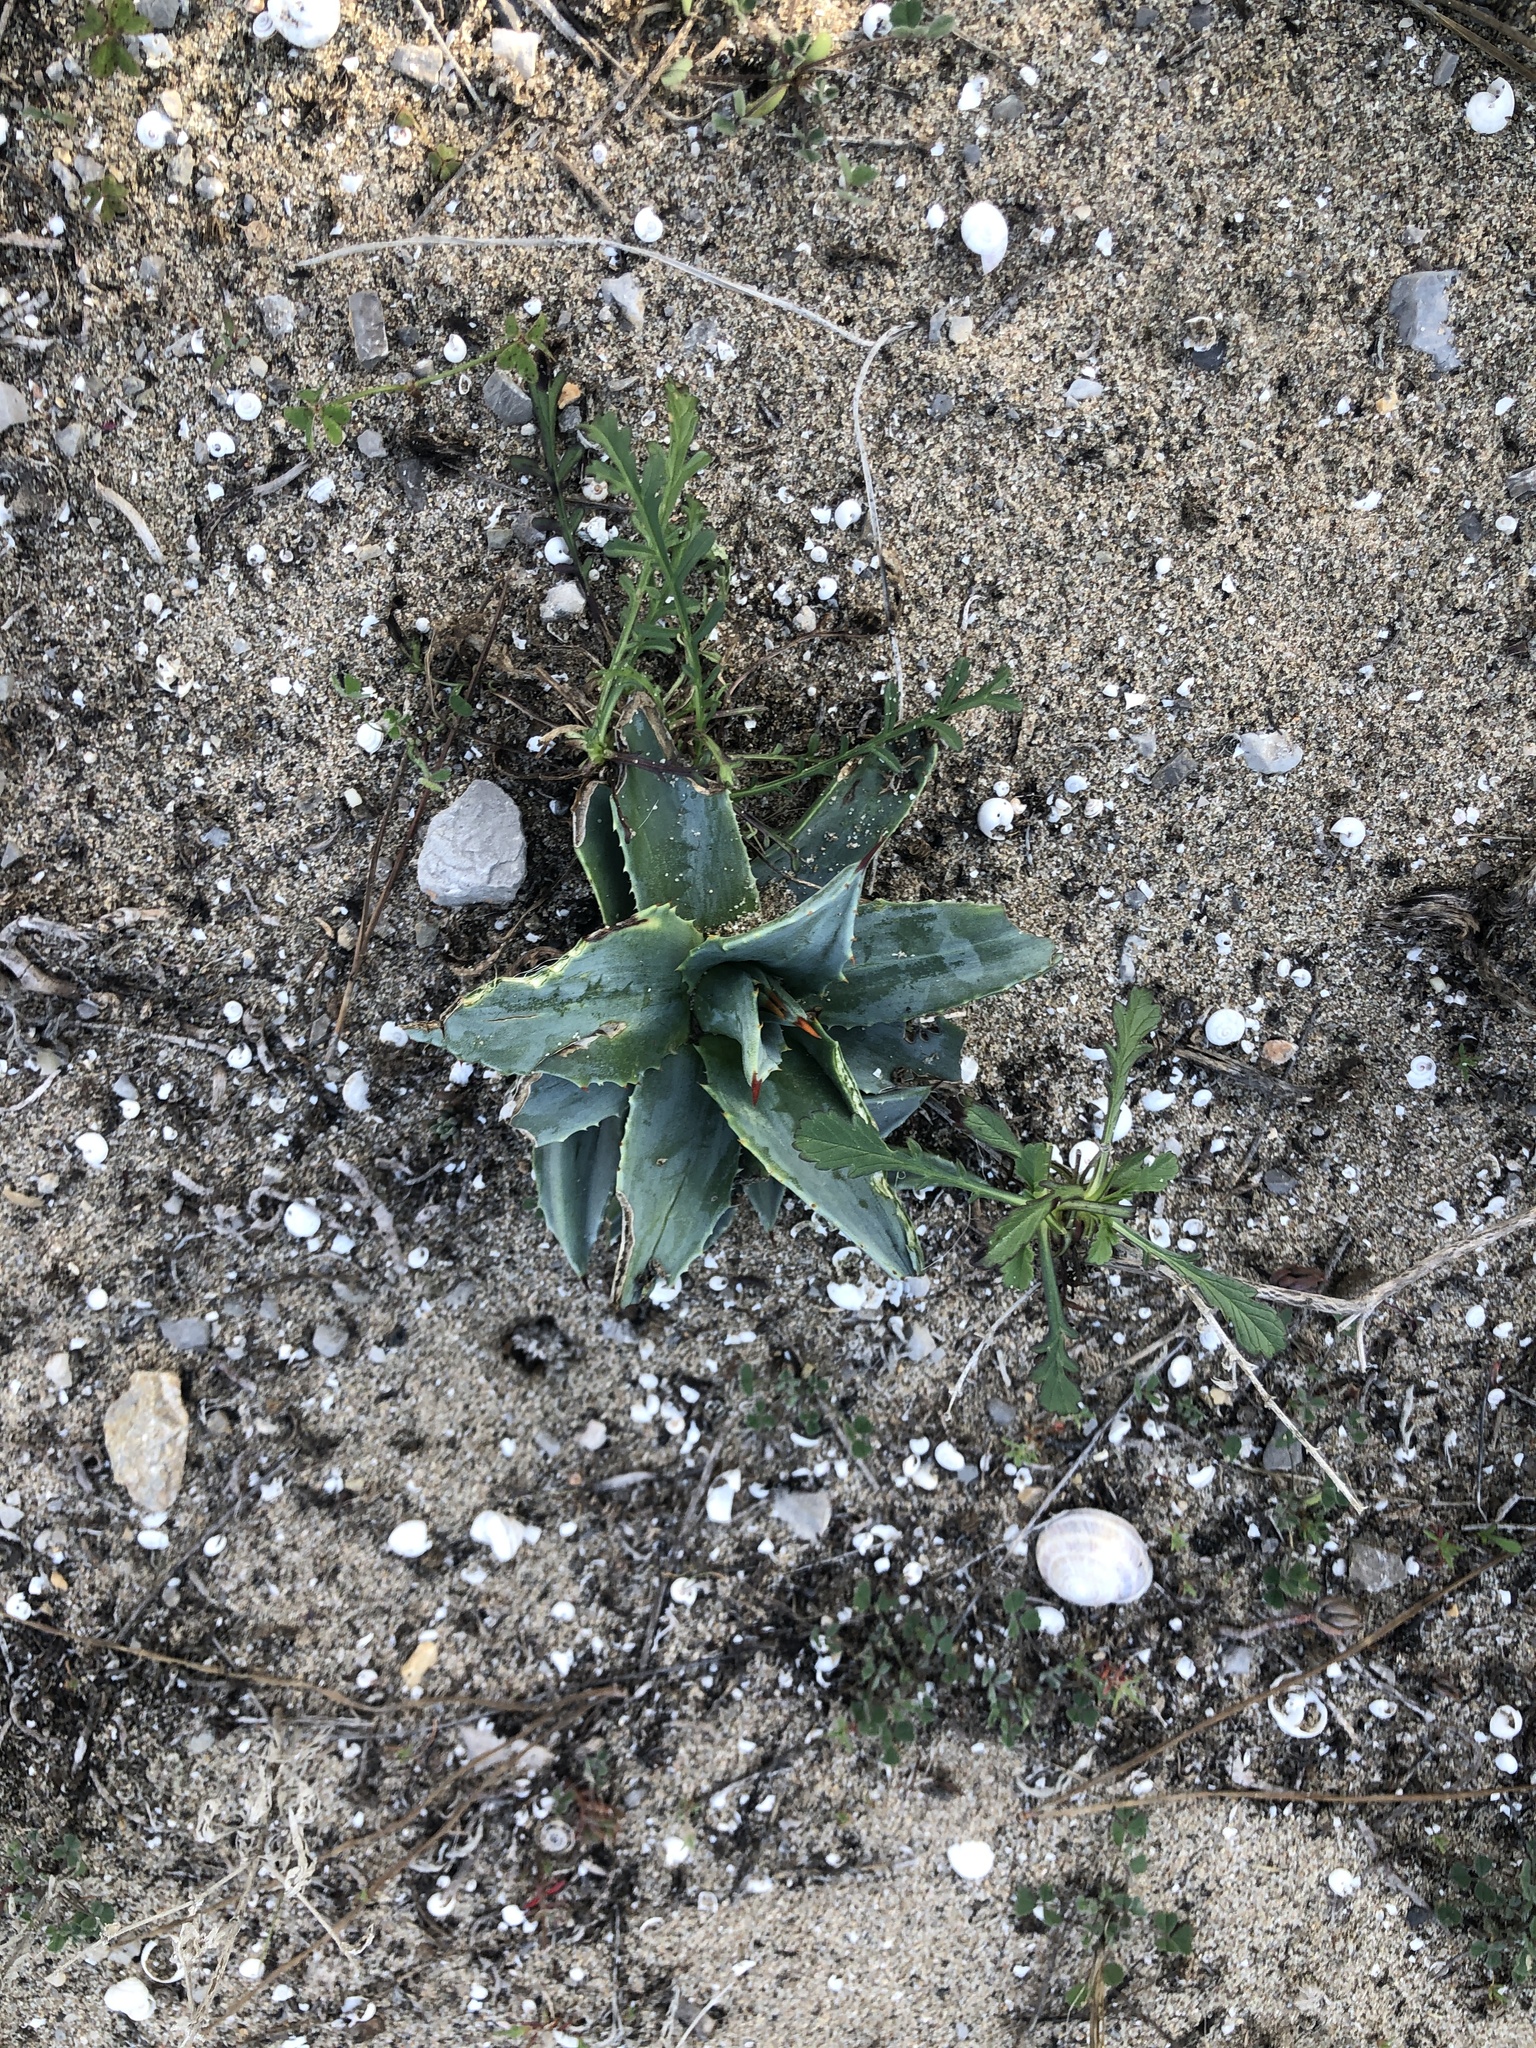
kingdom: Plantae
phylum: Tracheophyta
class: Liliopsida
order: Asparagales
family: Asparagaceae
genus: Agave
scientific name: Agave americana
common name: Centuryplant
